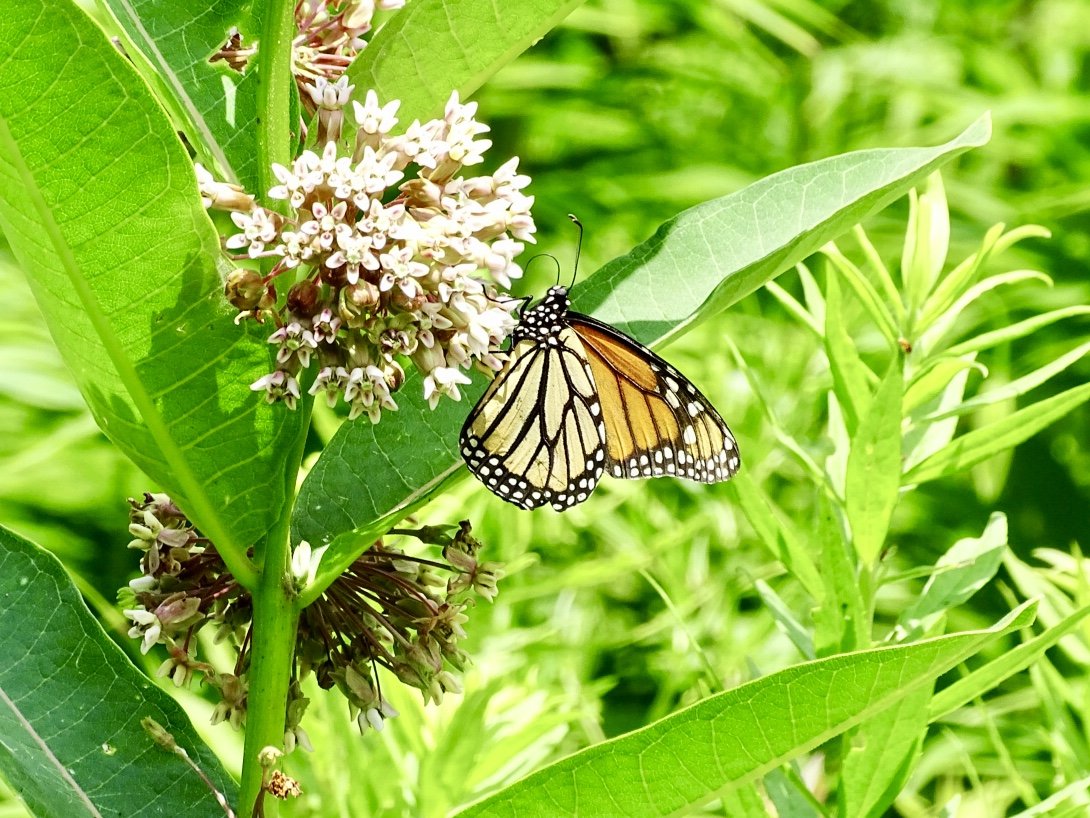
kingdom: Animalia
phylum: Arthropoda
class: Insecta
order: Lepidoptera
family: Nymphalidae
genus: Danaus
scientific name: Danaus plexippus
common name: Monarch
